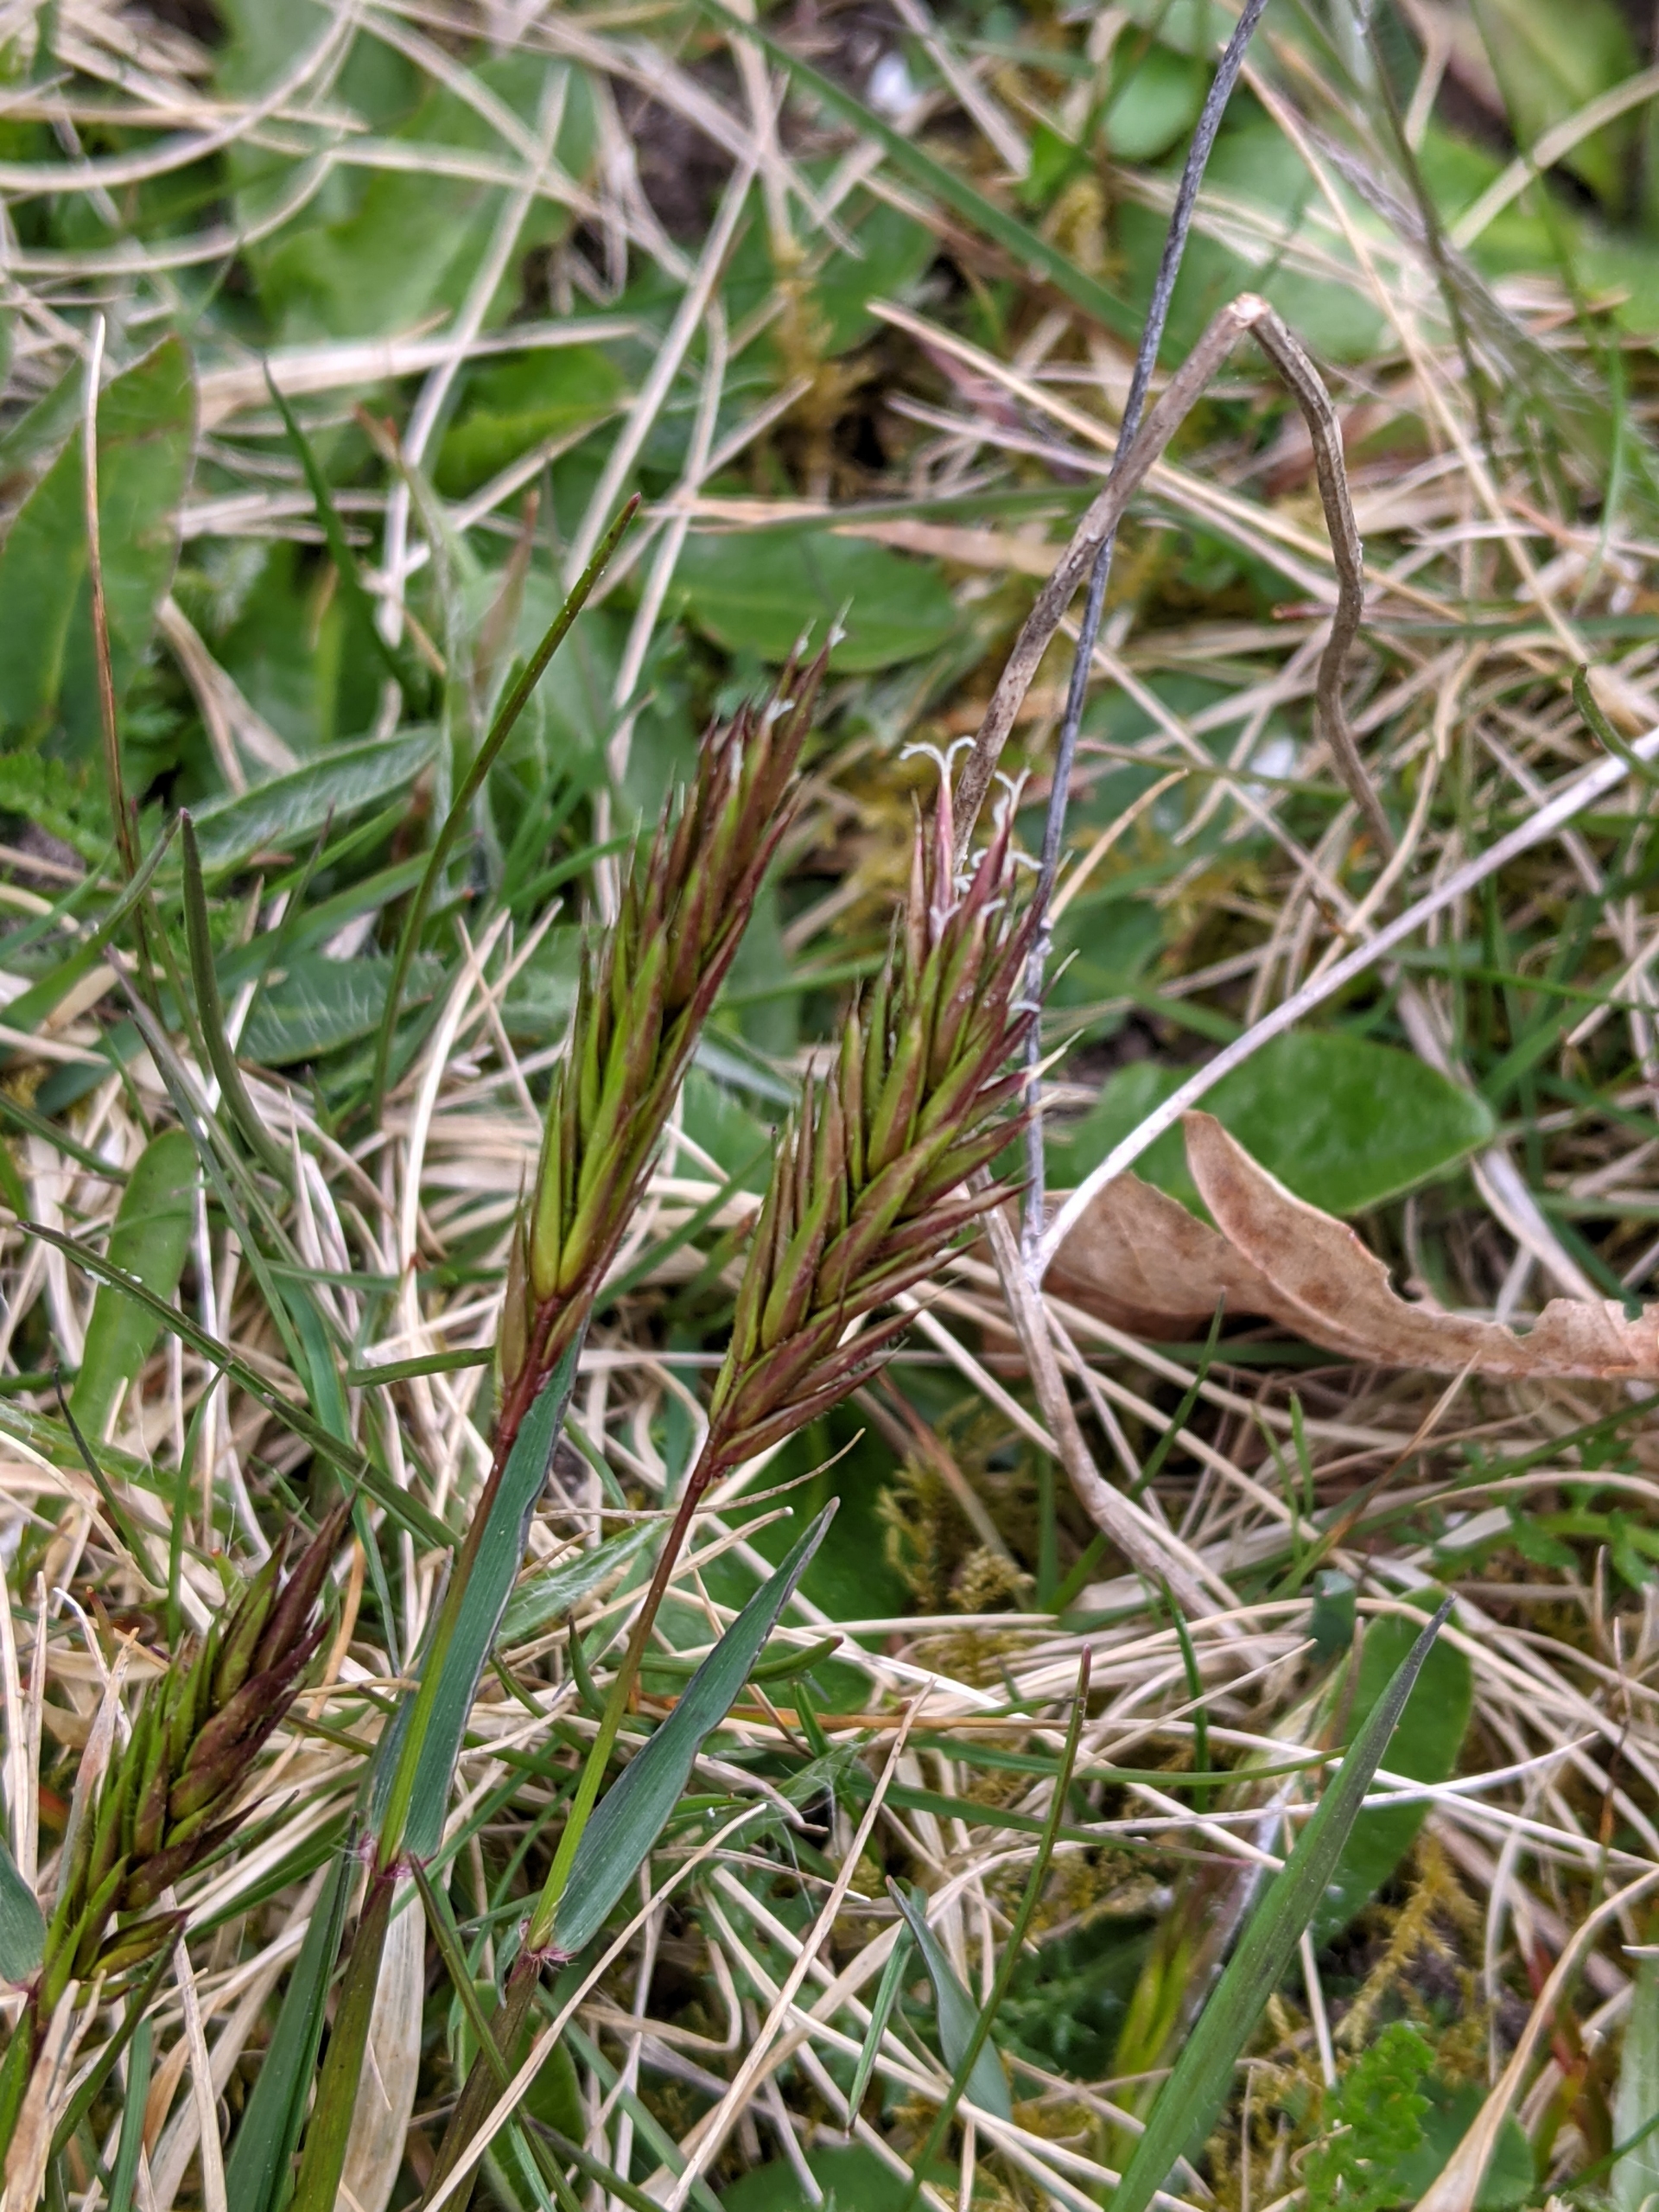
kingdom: Plantae
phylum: Tracheophyta
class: Liliopsida
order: Poales
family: Poaceae
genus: Anthoxanthum
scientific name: Anthoxanthum odoratum
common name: Vellugtende gulaks
